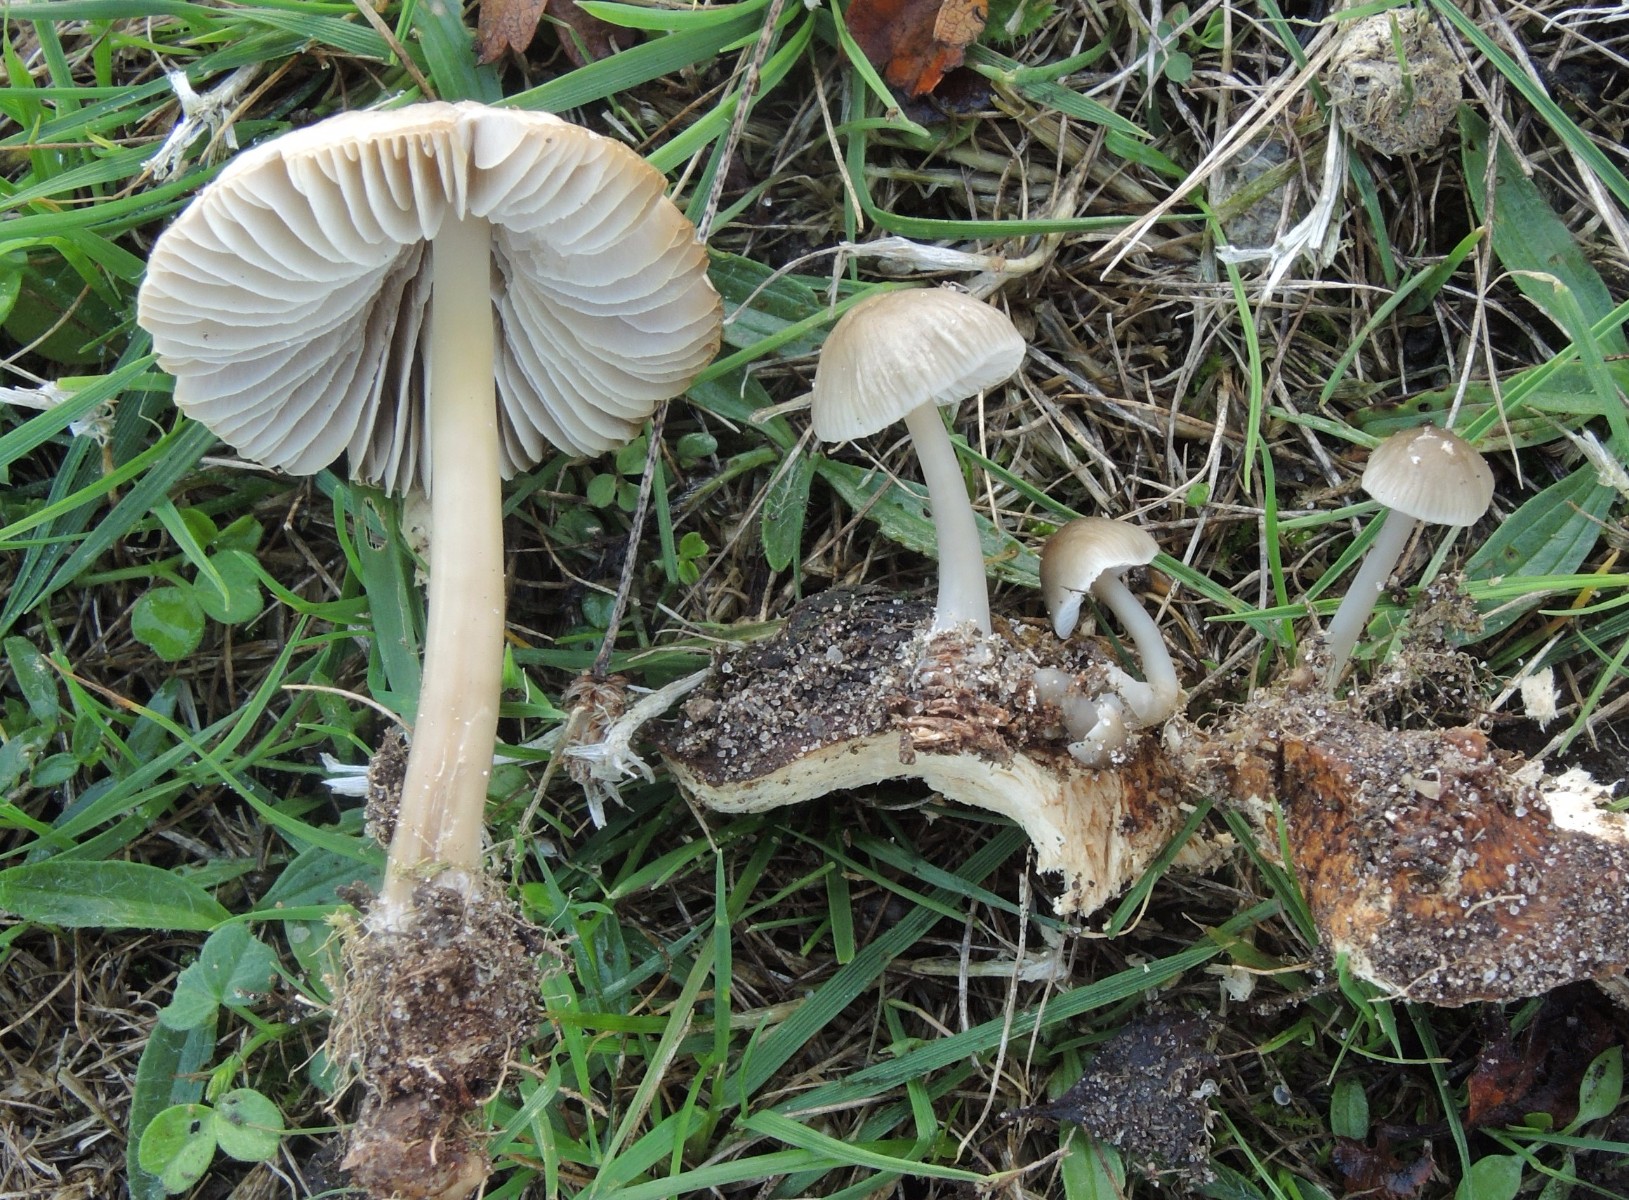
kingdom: Fungi
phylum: Basidiomycota
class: Agaricomycetes
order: Agaricales
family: Mycenaceae
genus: Mycena
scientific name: Mycena galericulata
